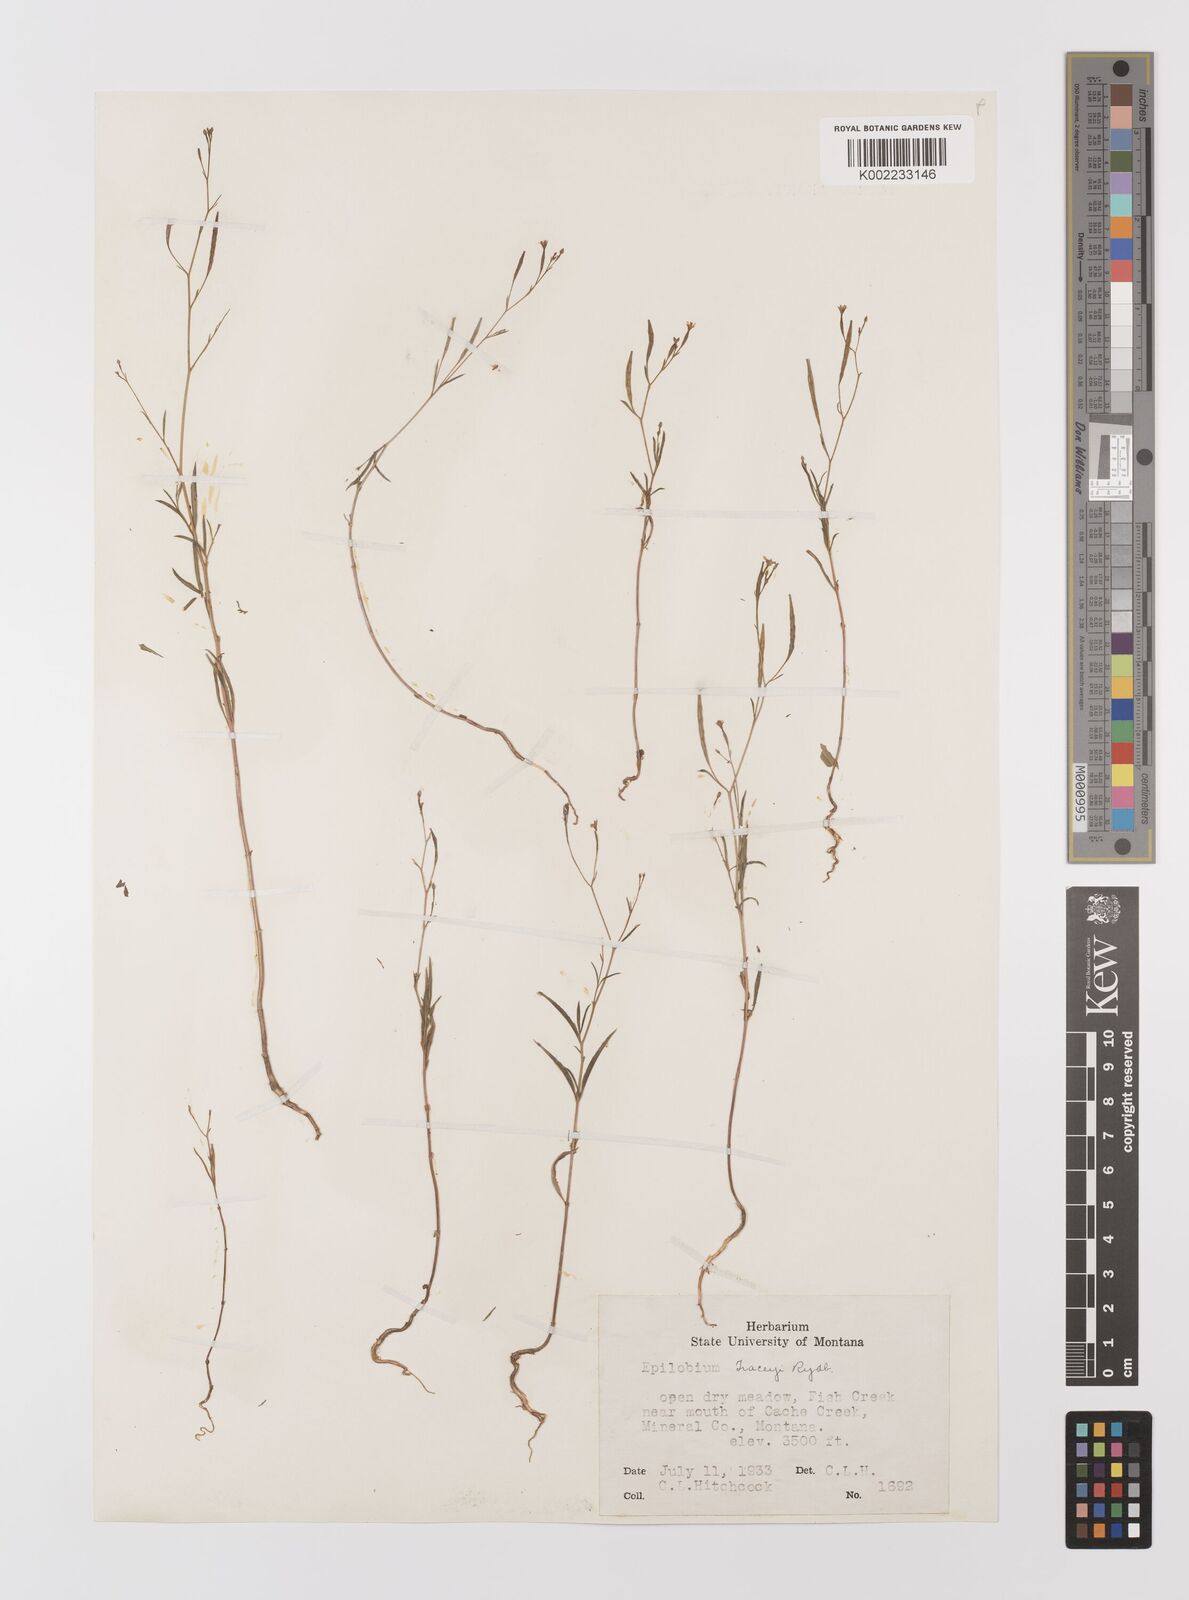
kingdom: Plantae
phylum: Tracheophyta
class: Magnoliopsida
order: Myrtales
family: Onagraceae
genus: Epilobium
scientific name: Epilobium brachycarpum
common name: Annual willowherb
